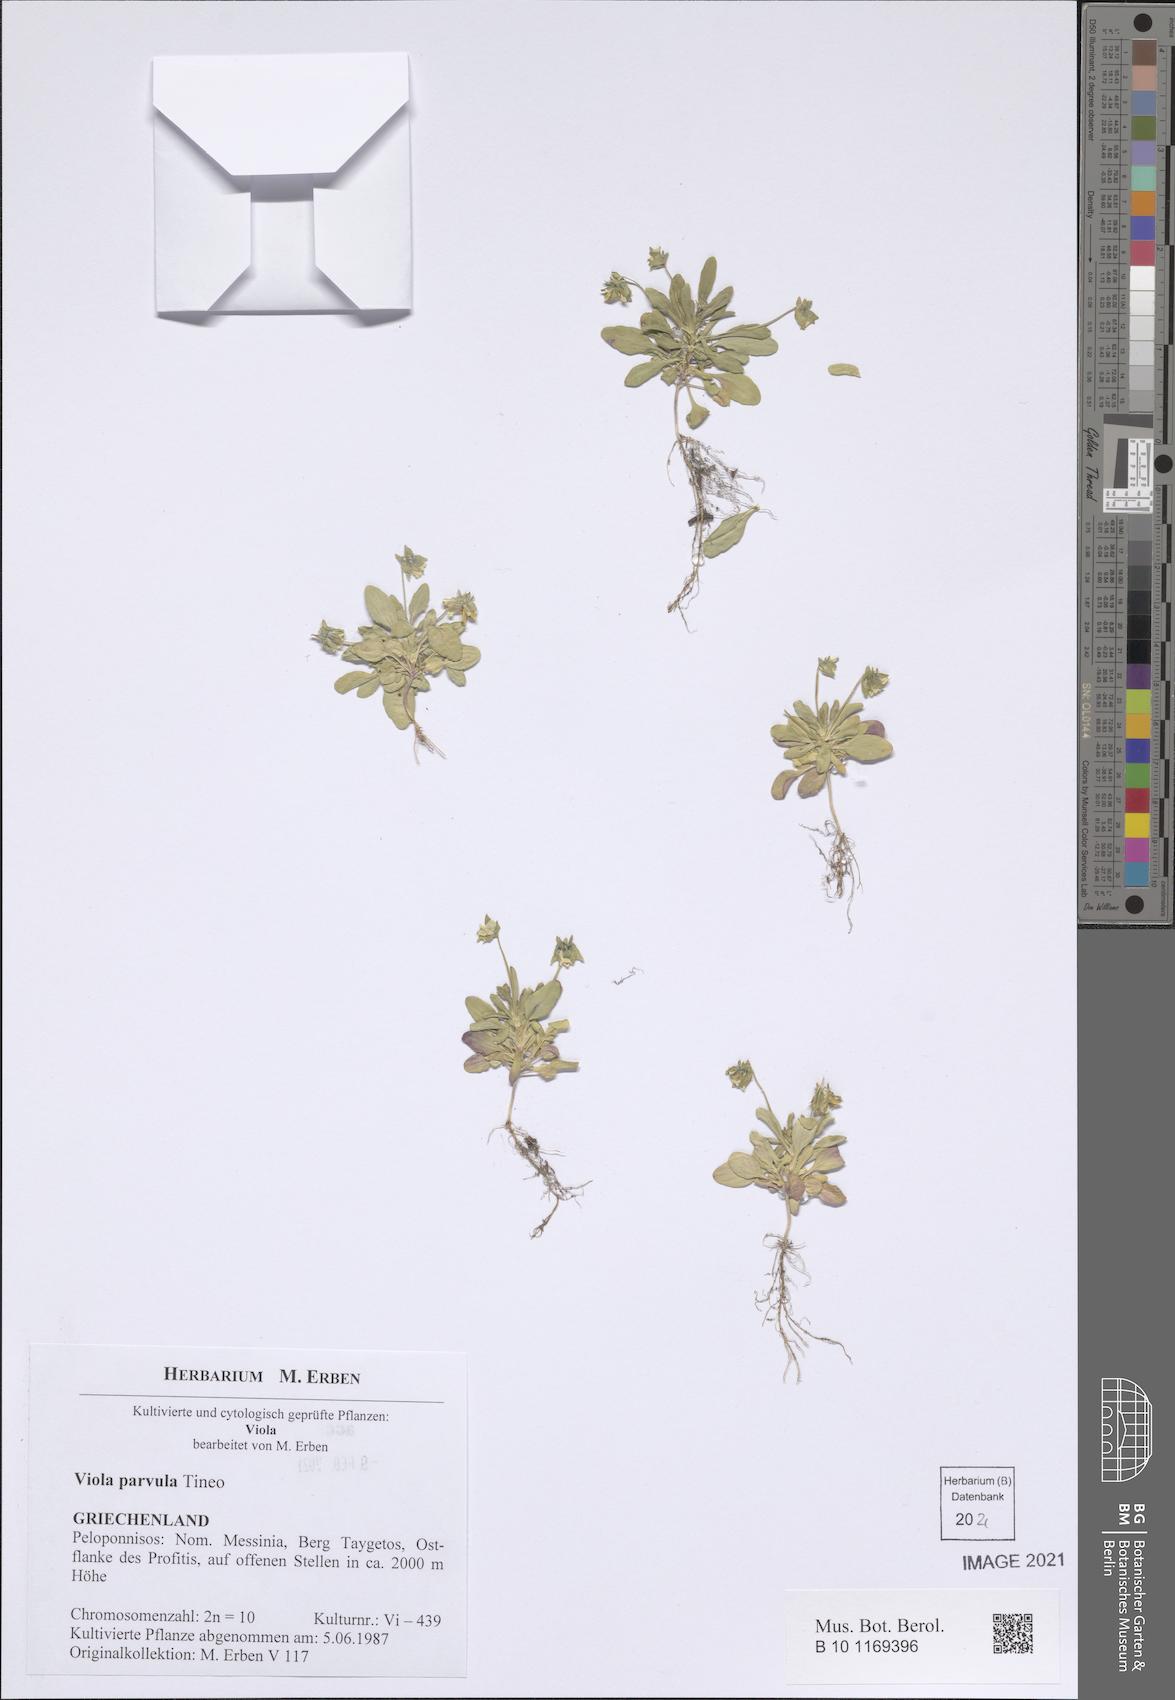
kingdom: Plantae
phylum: Tracheophyta
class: Magnoliopsida
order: Malpighiales
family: Violaceae
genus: Viola
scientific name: Viola hirta
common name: Hairy violet
